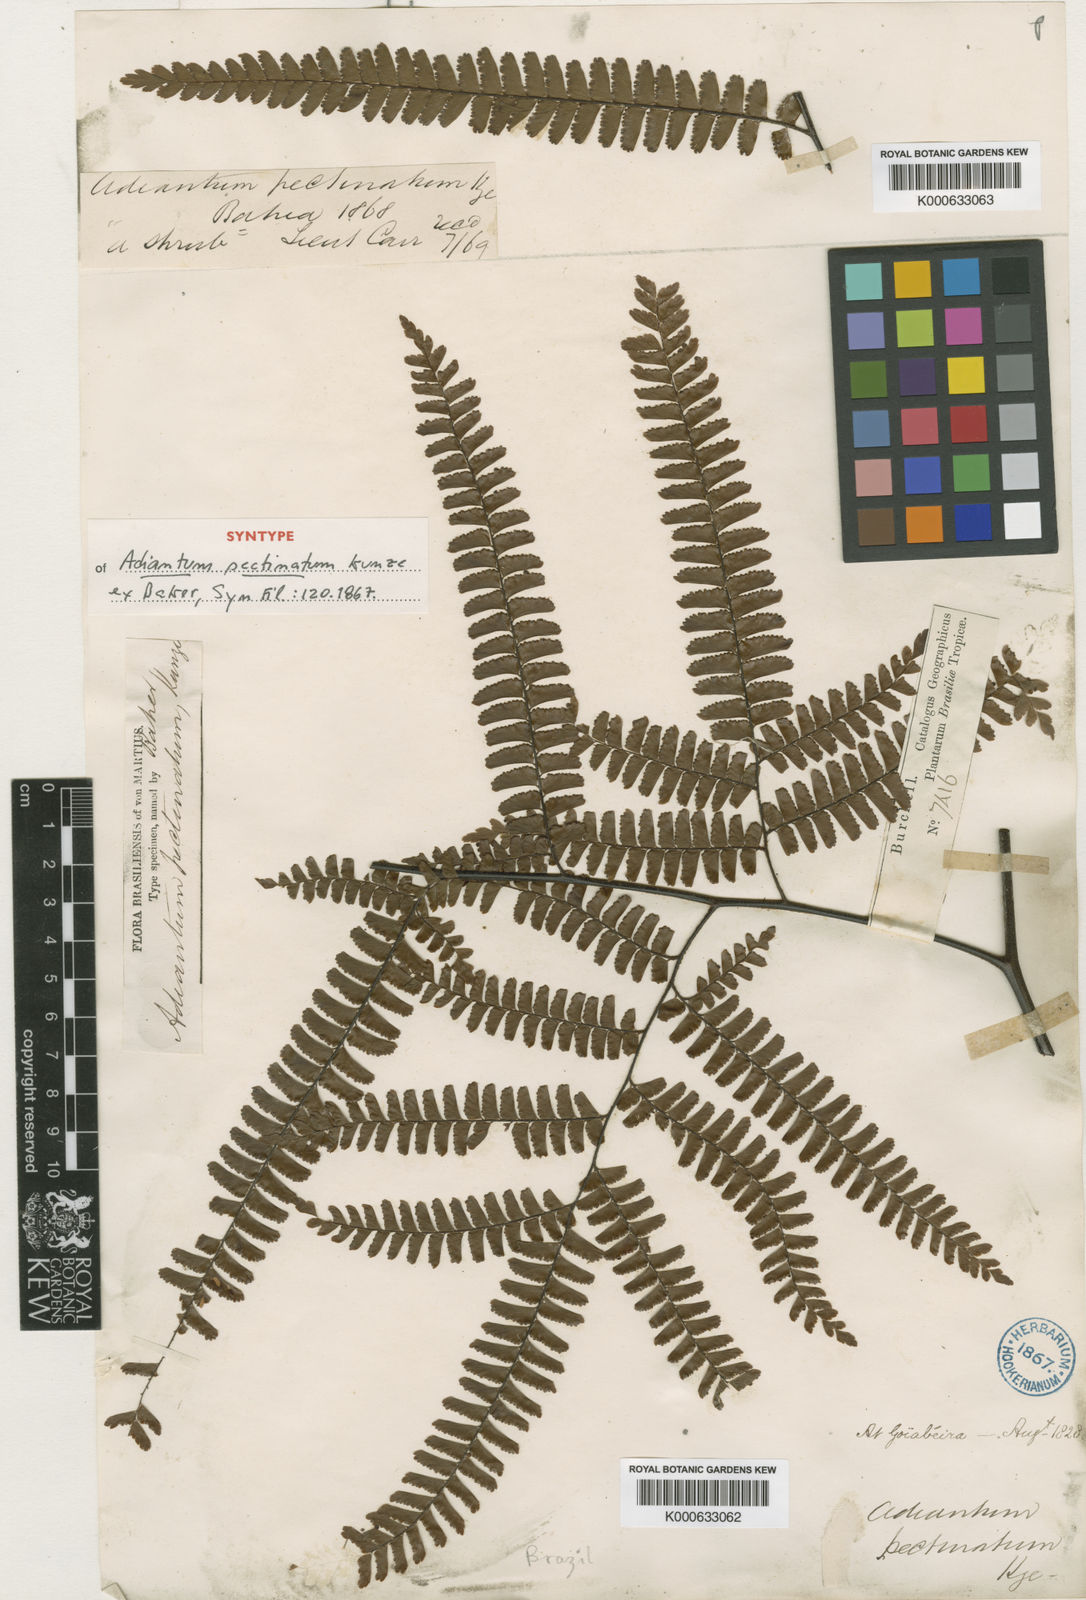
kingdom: Plantae
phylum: Tracheophyta
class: Polypodiopsida
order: Polypodiales
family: Pteridaceae
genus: Adiantum
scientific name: Adiantum
